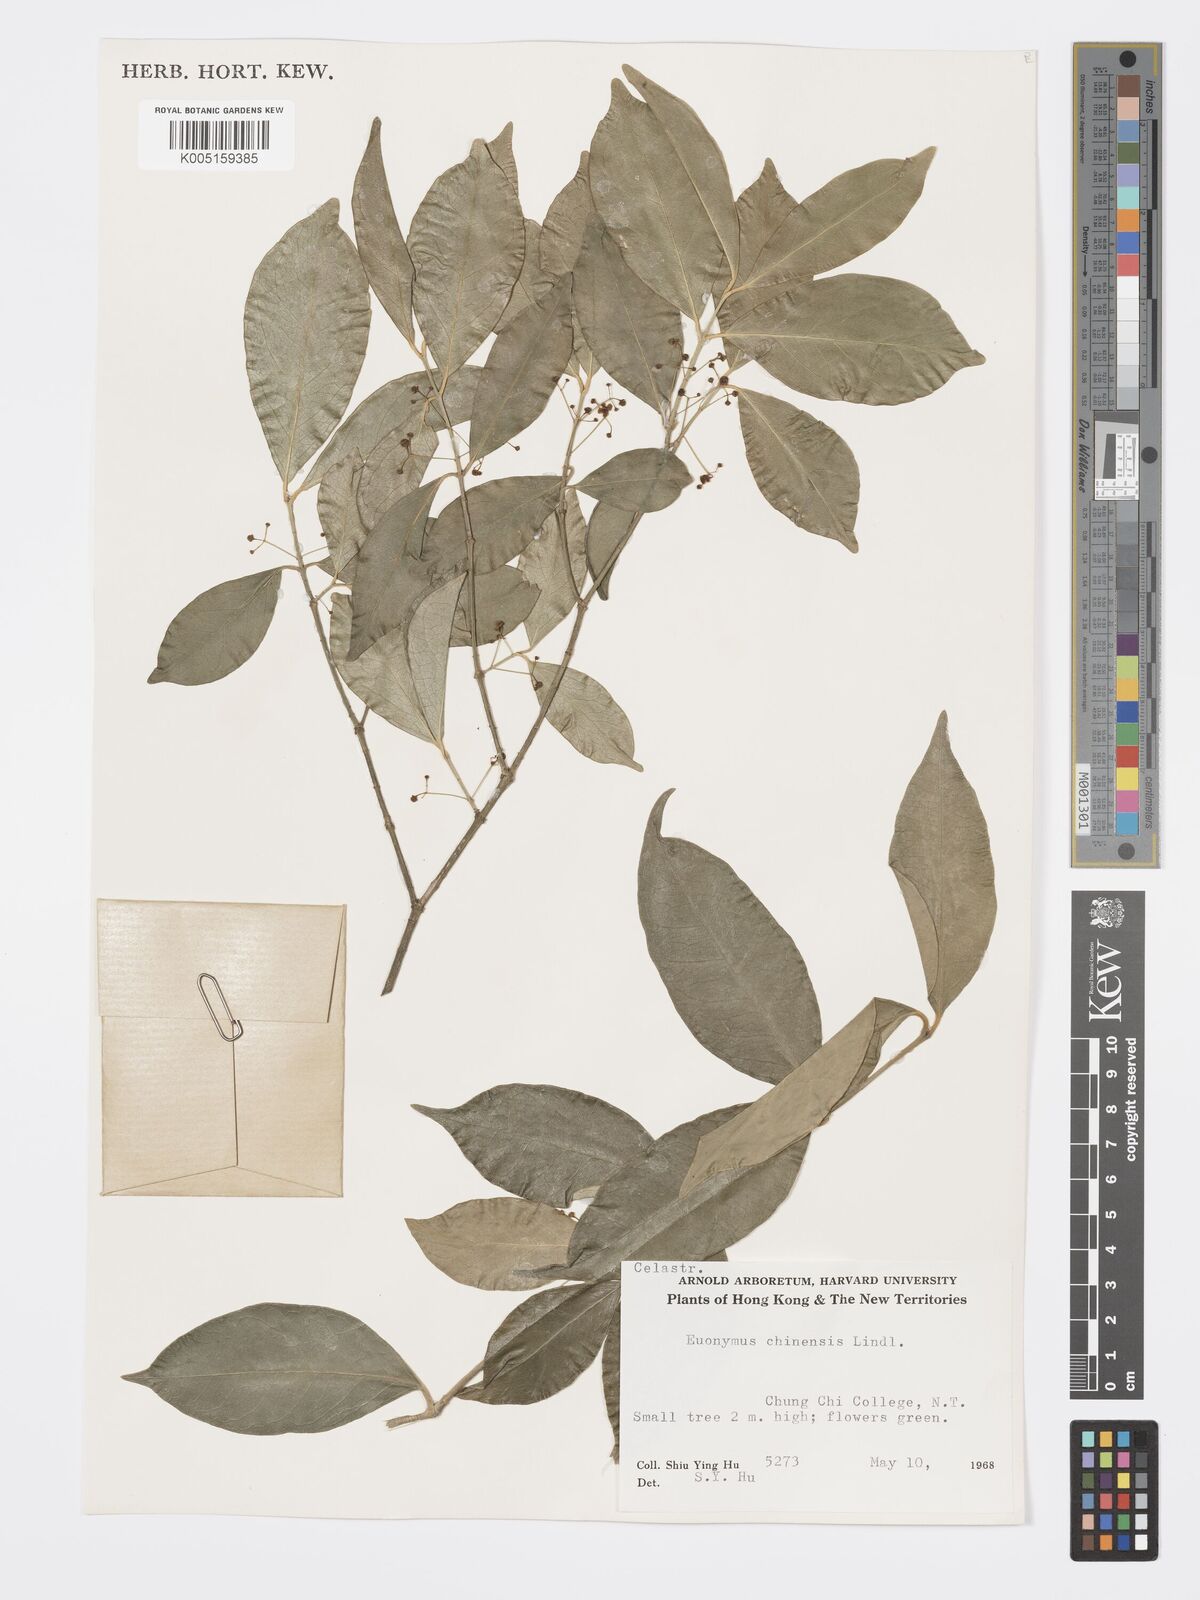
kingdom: Plantae
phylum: Tracheophyta
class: Magnoliopsida
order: Celastrales
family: Celastraceae
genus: Euonymus
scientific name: Euonymus nitidus
